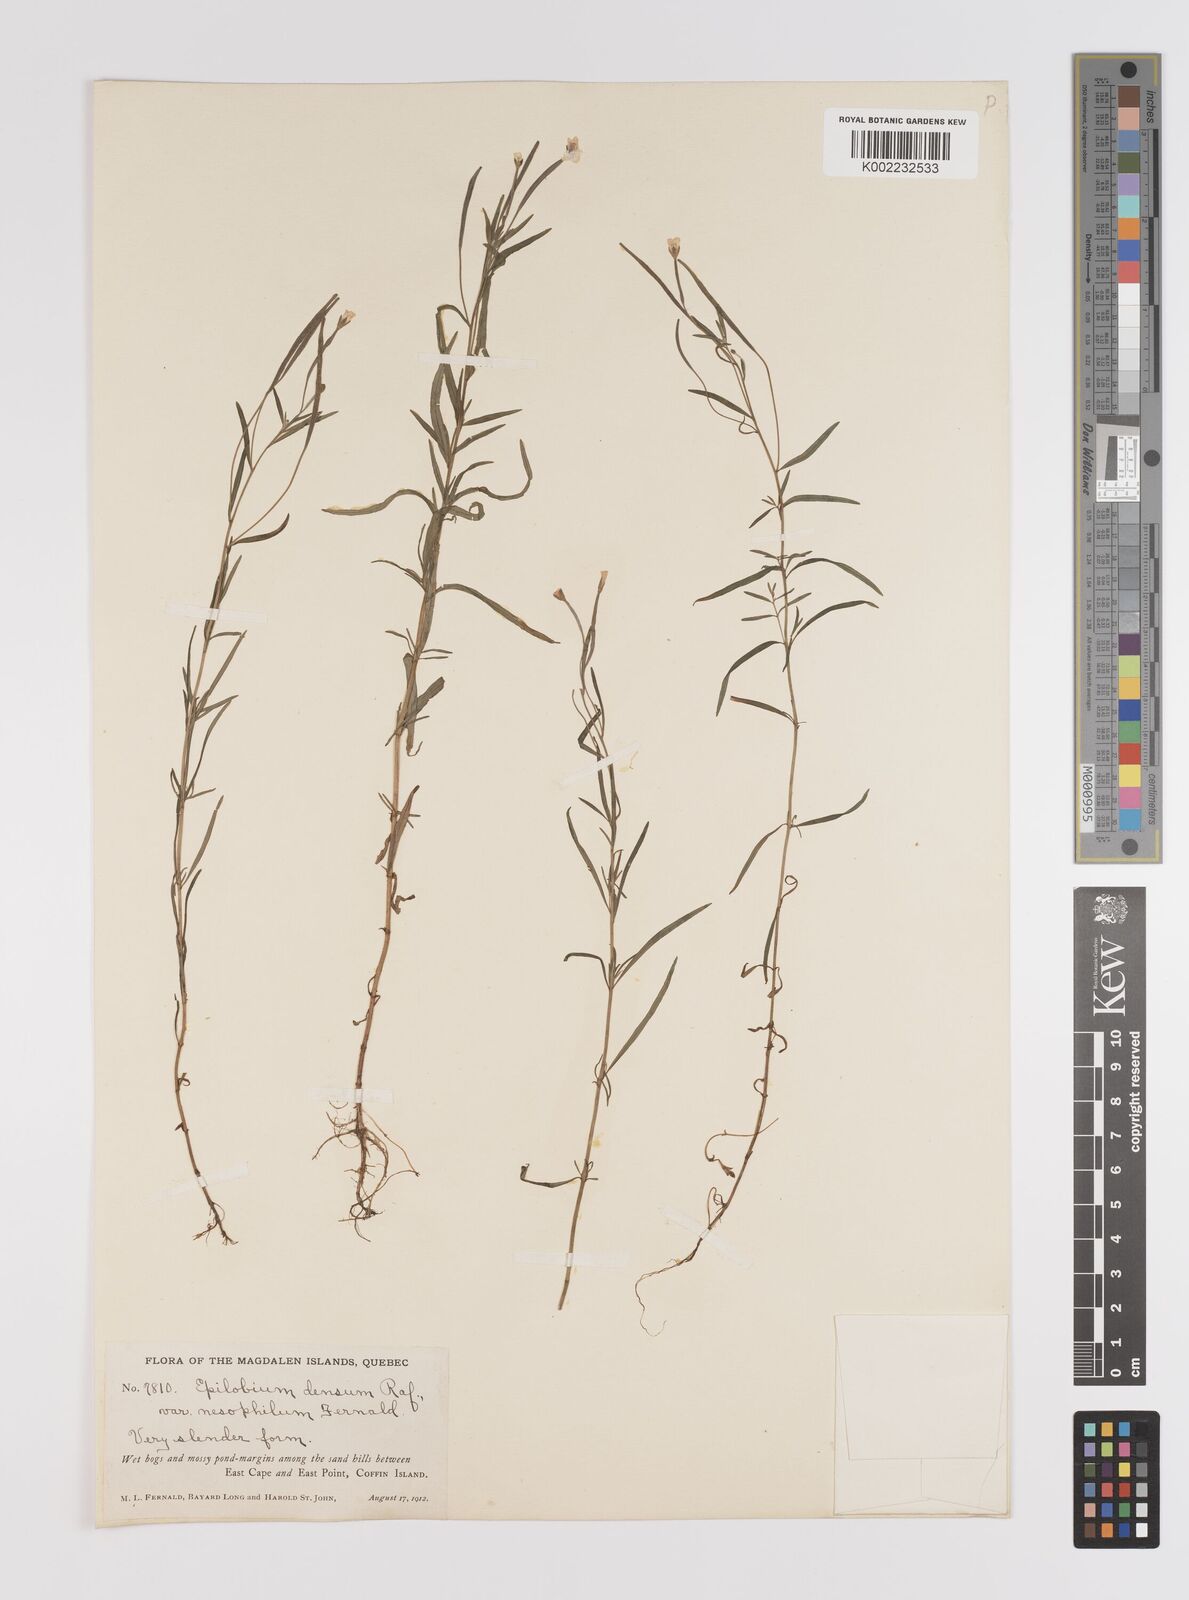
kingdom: Plantae
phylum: Tracheophyta
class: Magnoliopsida
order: Myrtales
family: Onagraceae
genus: Epilobium
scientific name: Epilobium leptophyllum
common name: Bog willowherb
